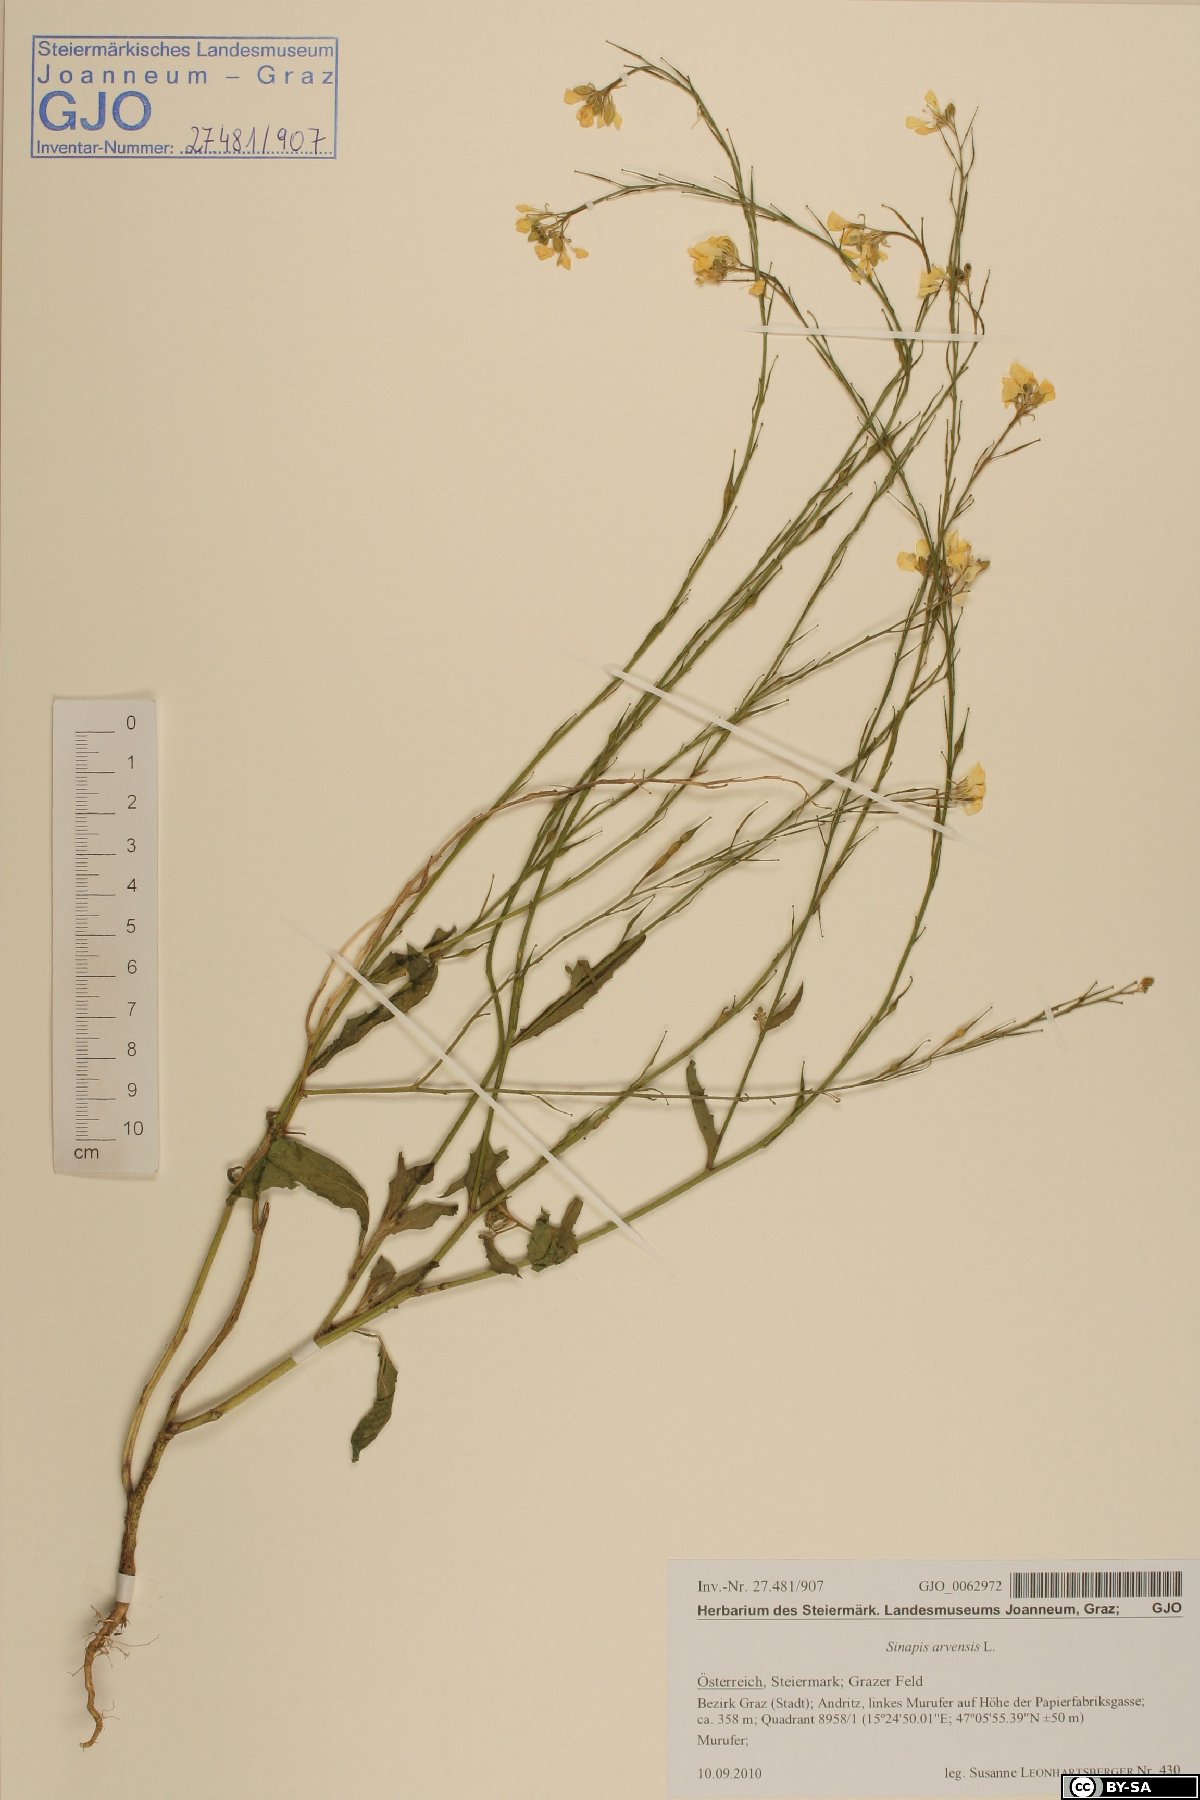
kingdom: Plantae
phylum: Tracheophyta
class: Magnoliopsida
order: Brassicales
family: Brassicaceae
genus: Sinapis
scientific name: Sinapis arvensis
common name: Charlock
